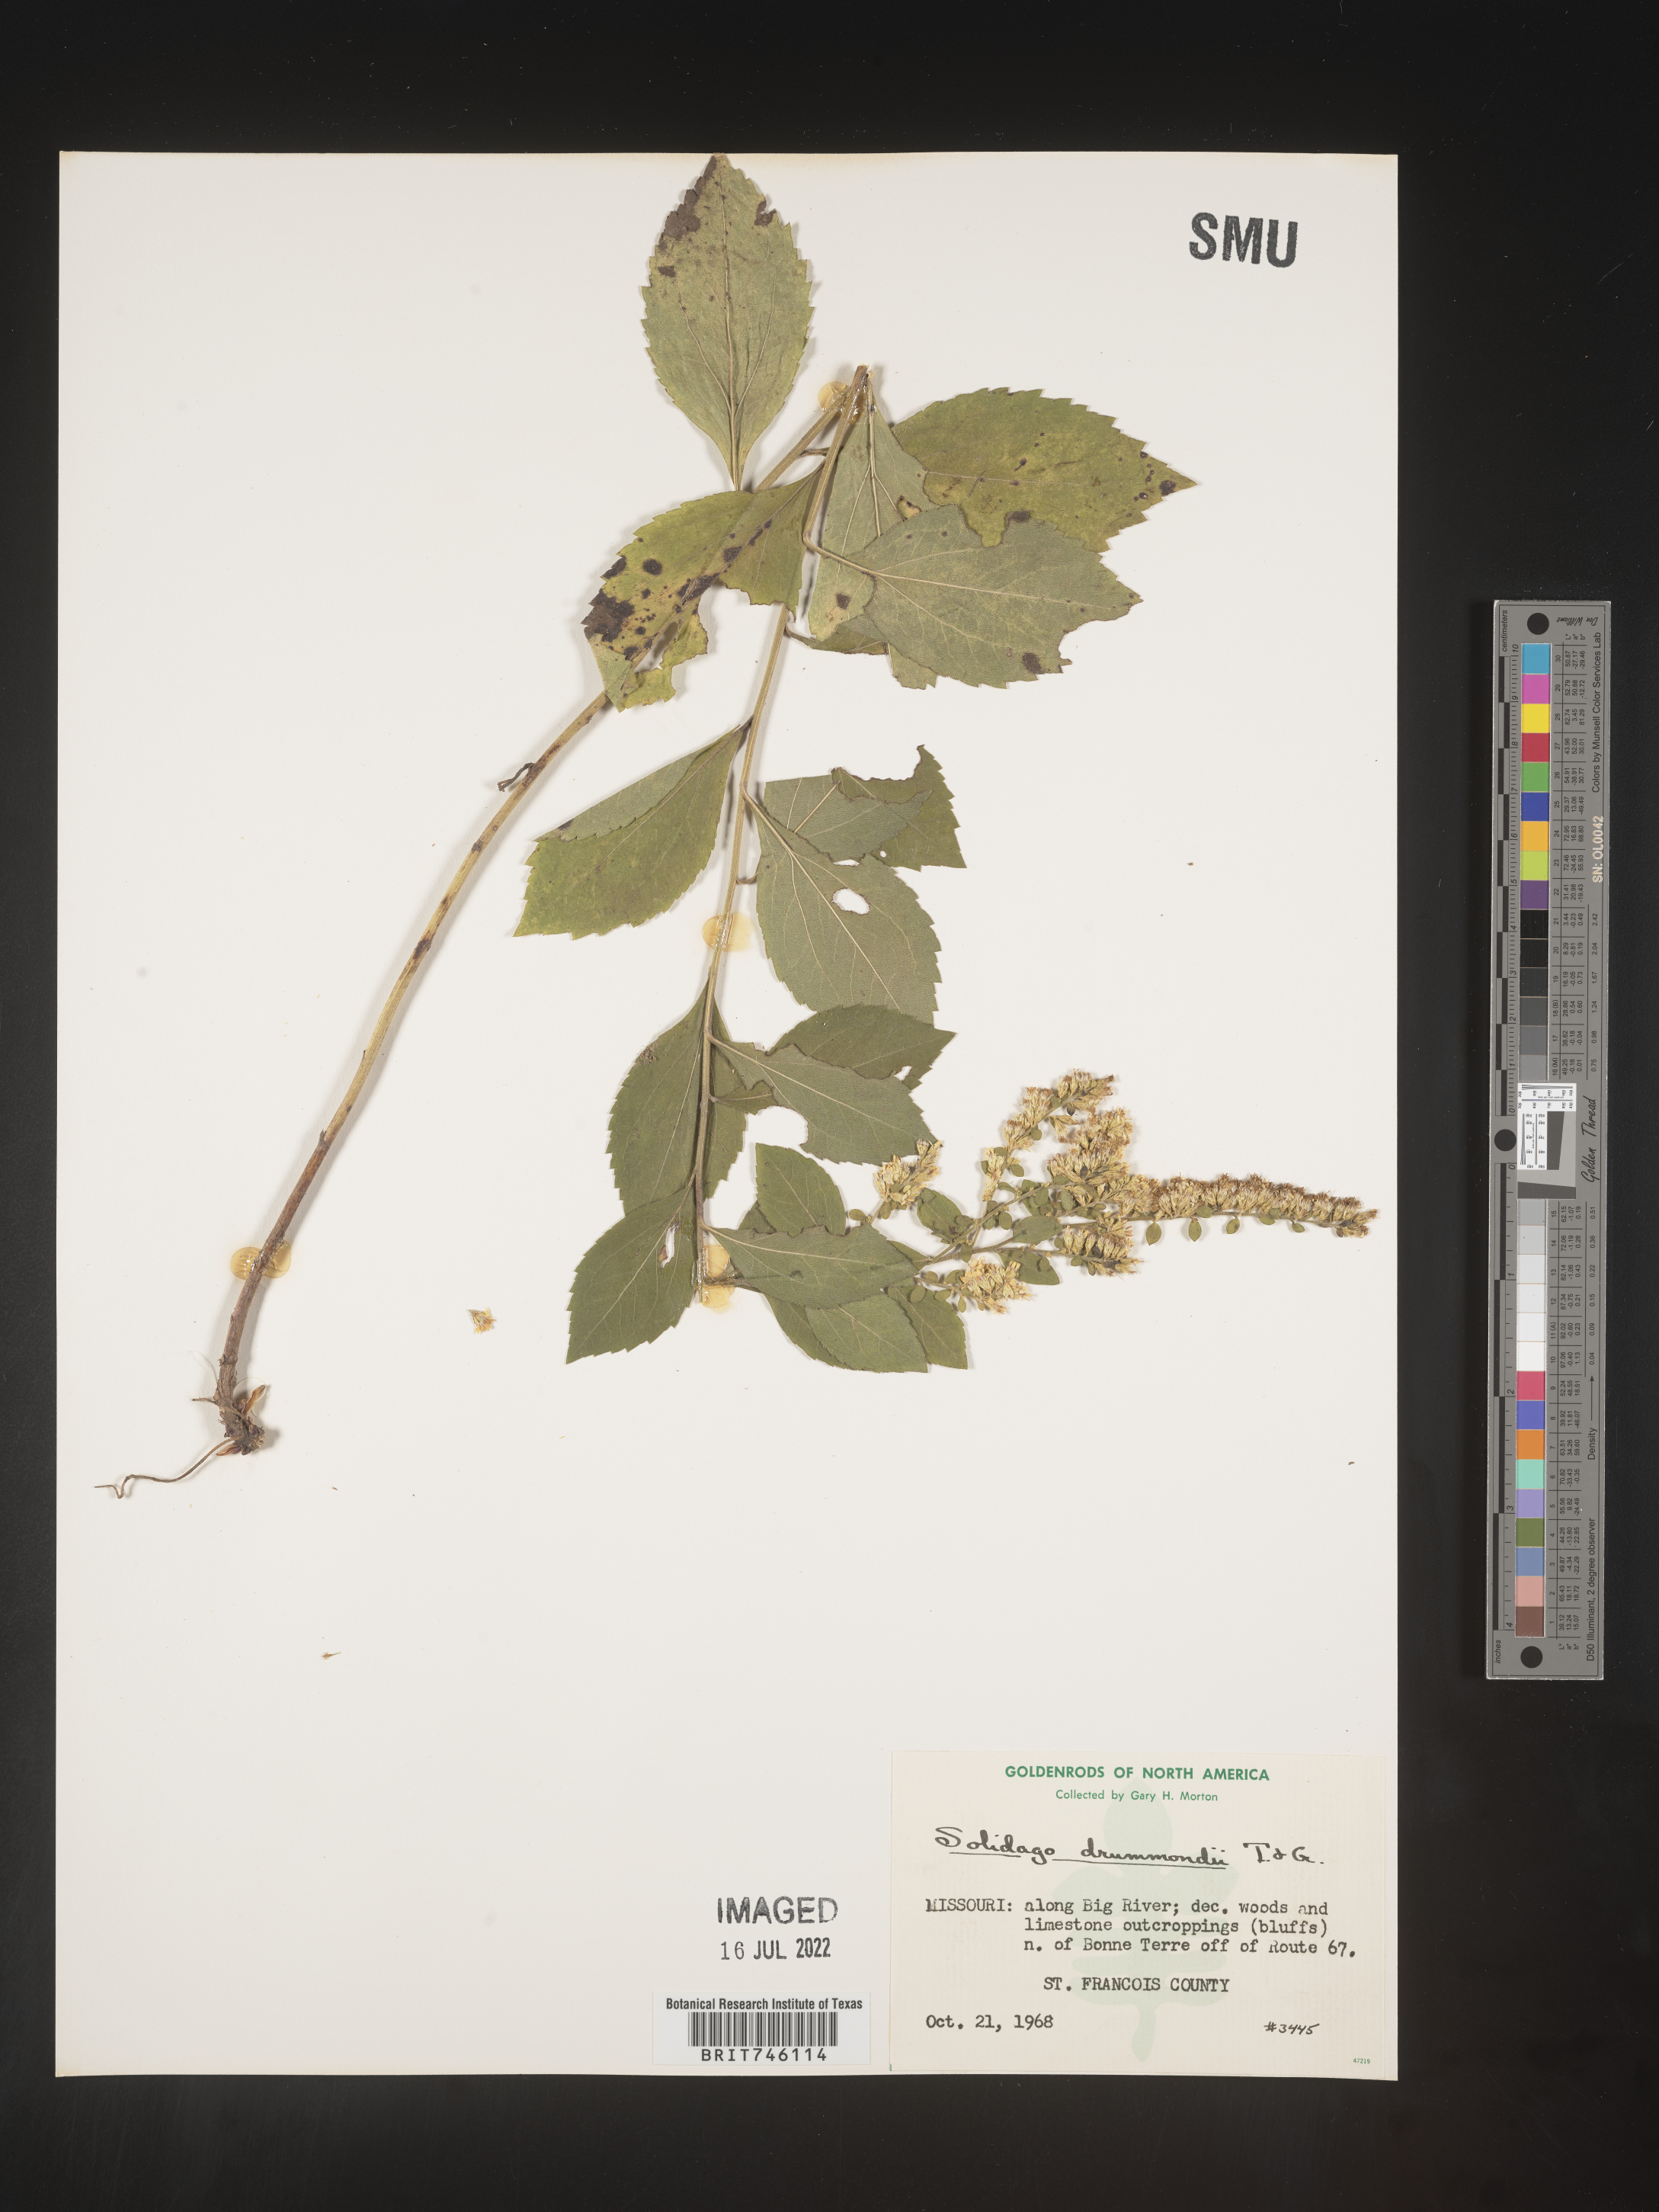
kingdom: Plantae
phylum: Tracheophyta
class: Magnoliopsida
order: Asterales
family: Asteraceae
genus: Solidago
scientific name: Solidago drummondii
